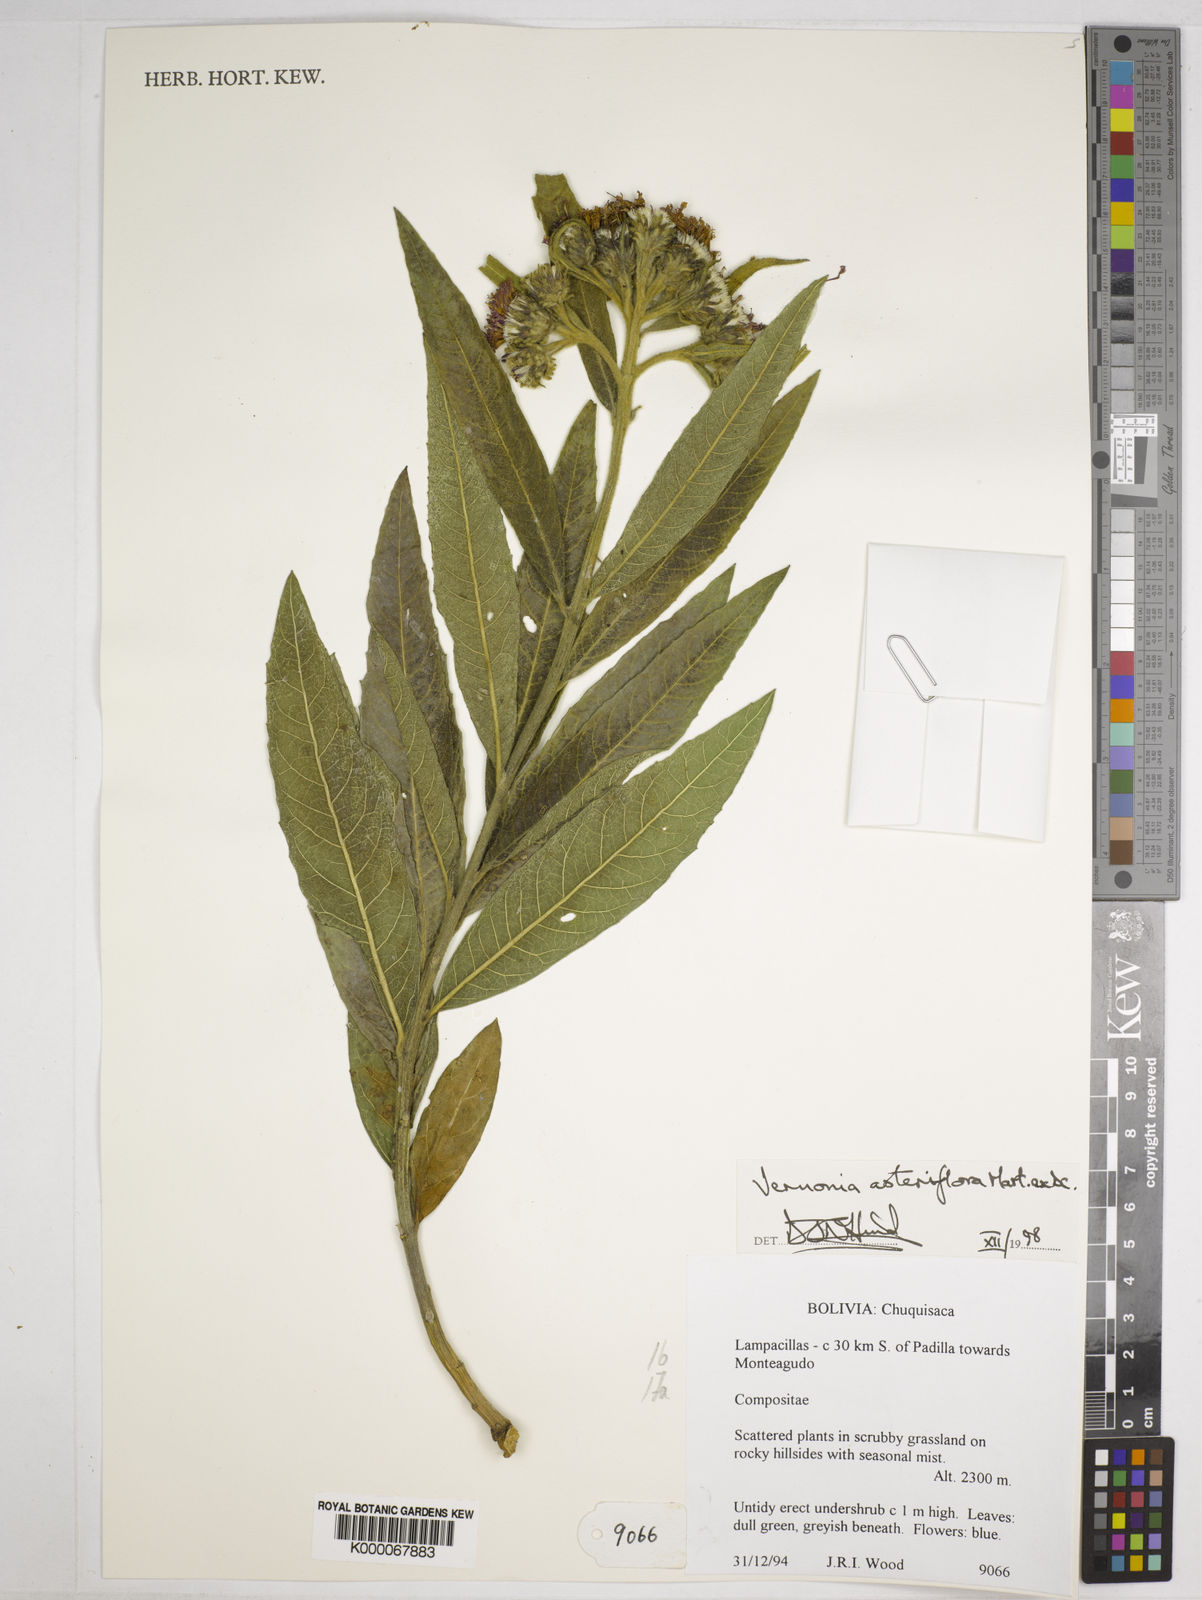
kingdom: Plantae
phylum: Tracheophyta
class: Magnoliopsida
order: Asterales
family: Asteraceae
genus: Lessingianthus
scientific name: Lessingianthus asteriflorus
